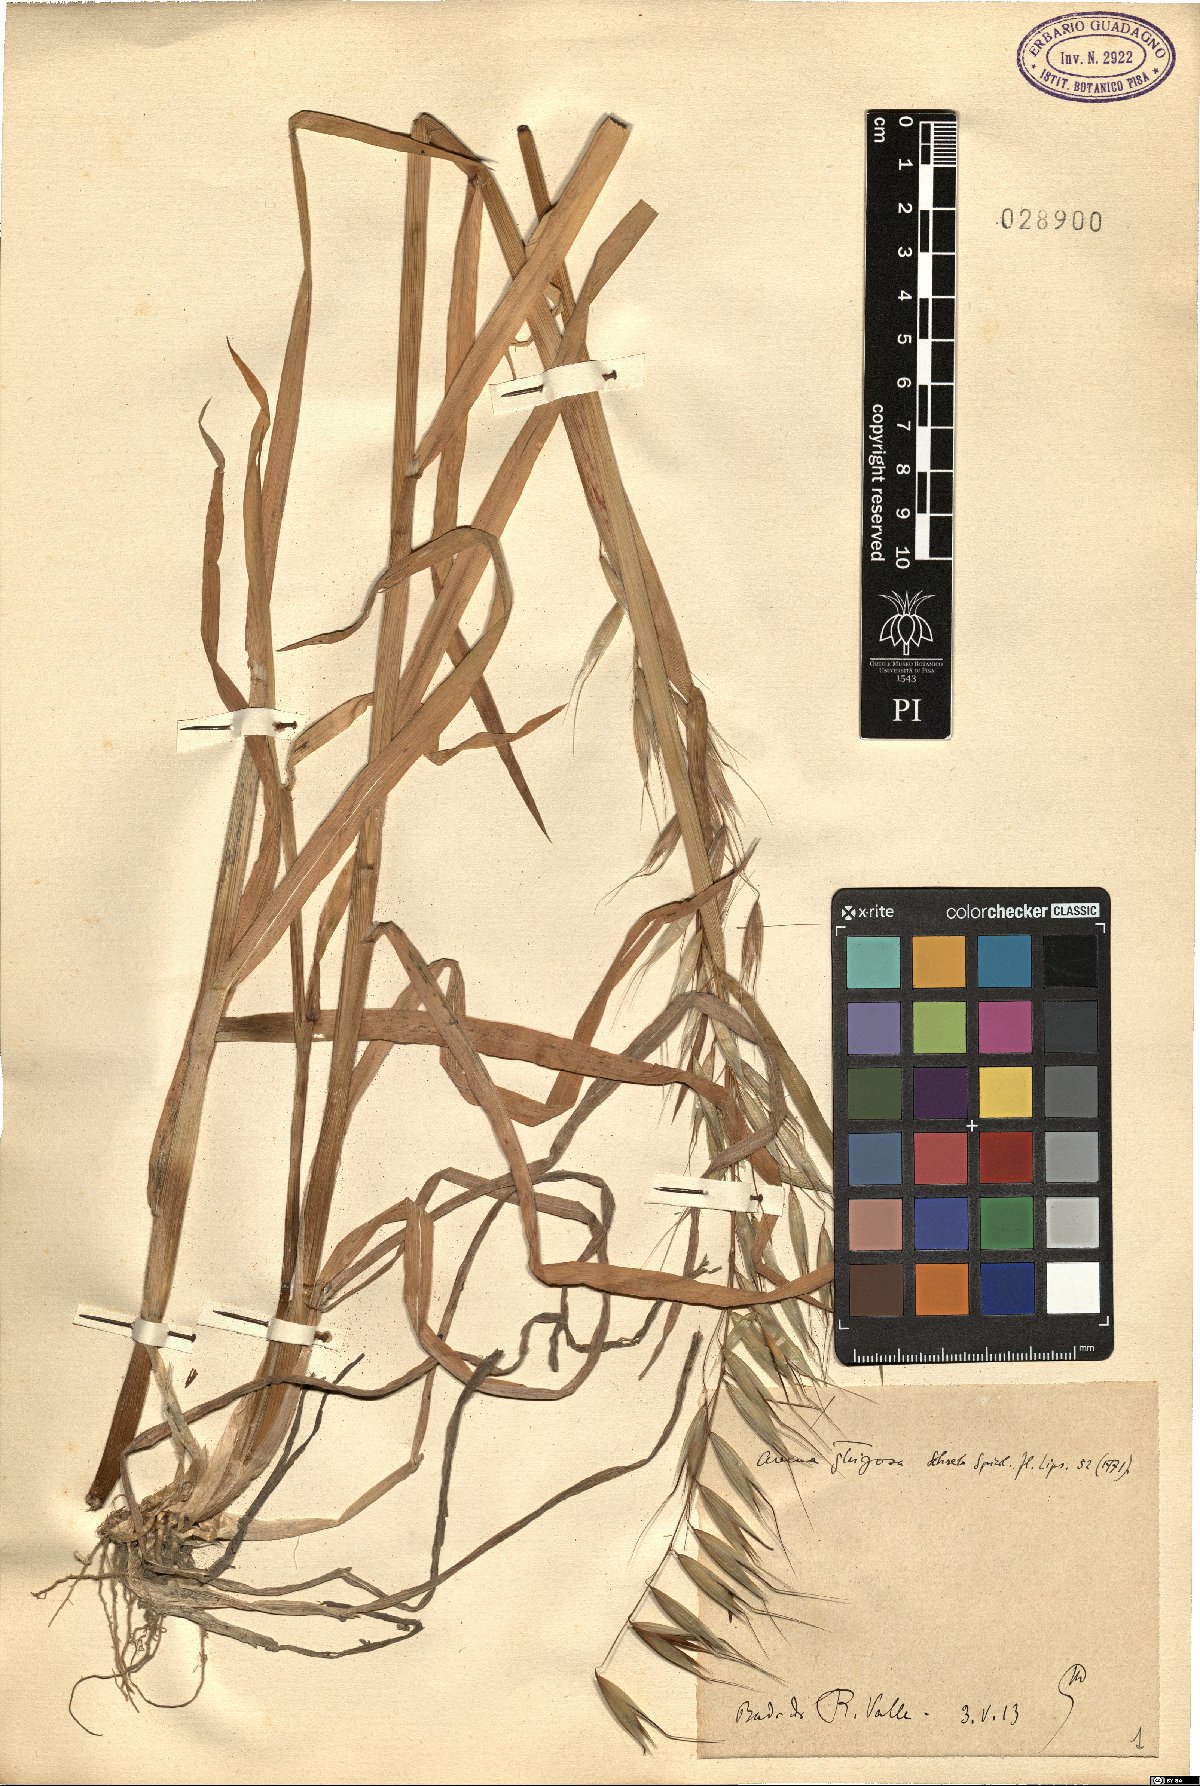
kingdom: Plantae
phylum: Tracheophyta
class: Liliopsida
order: Poales
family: Poaceae
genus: Avena
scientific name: Avena strigosa
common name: Bristle oat
